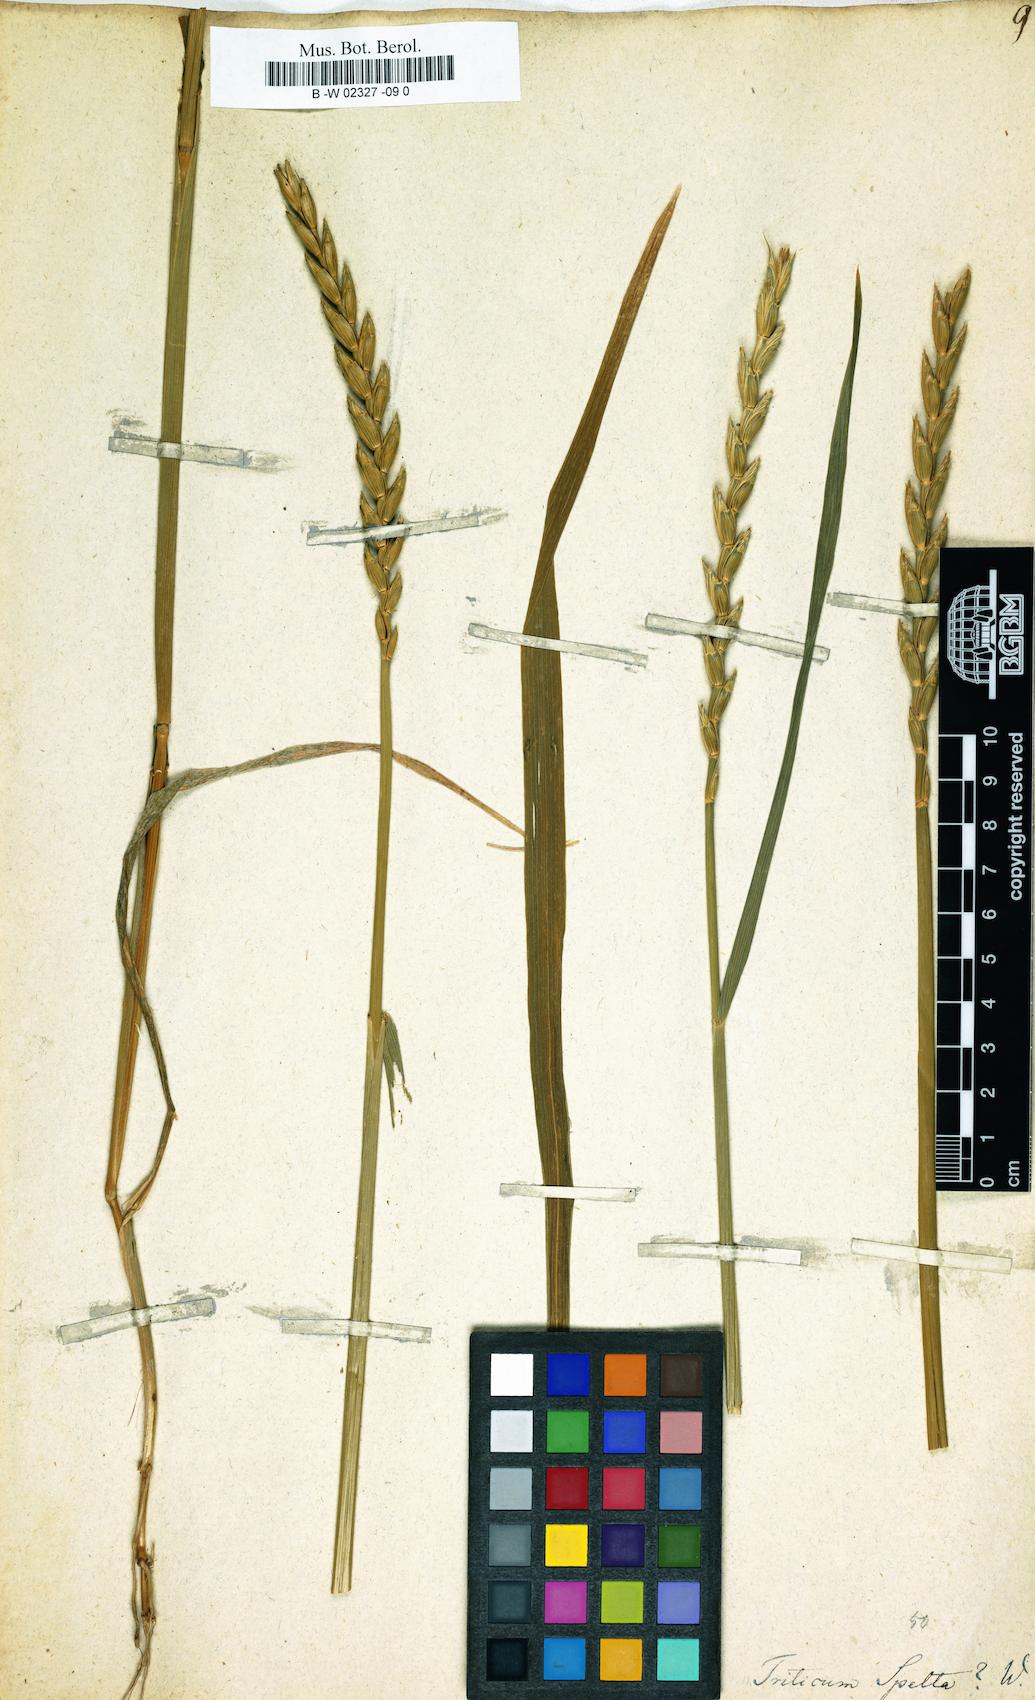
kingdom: Plantae
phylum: Tracheophyta
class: Liliopsida
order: Poales
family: Poaceae
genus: Triticum
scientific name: Triticum aestivum
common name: Common wheat
